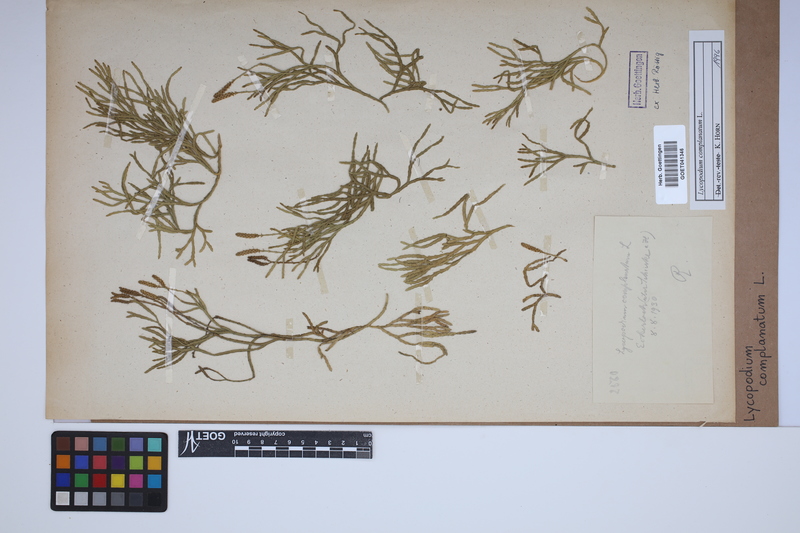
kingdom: Plantae
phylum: Tracheophyta
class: Lycopodiopsida
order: Lycopodiales
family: Lycopodiaceae
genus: Diphasiastrum
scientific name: Diphasiastrum complanatum
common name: Northern running-pine
